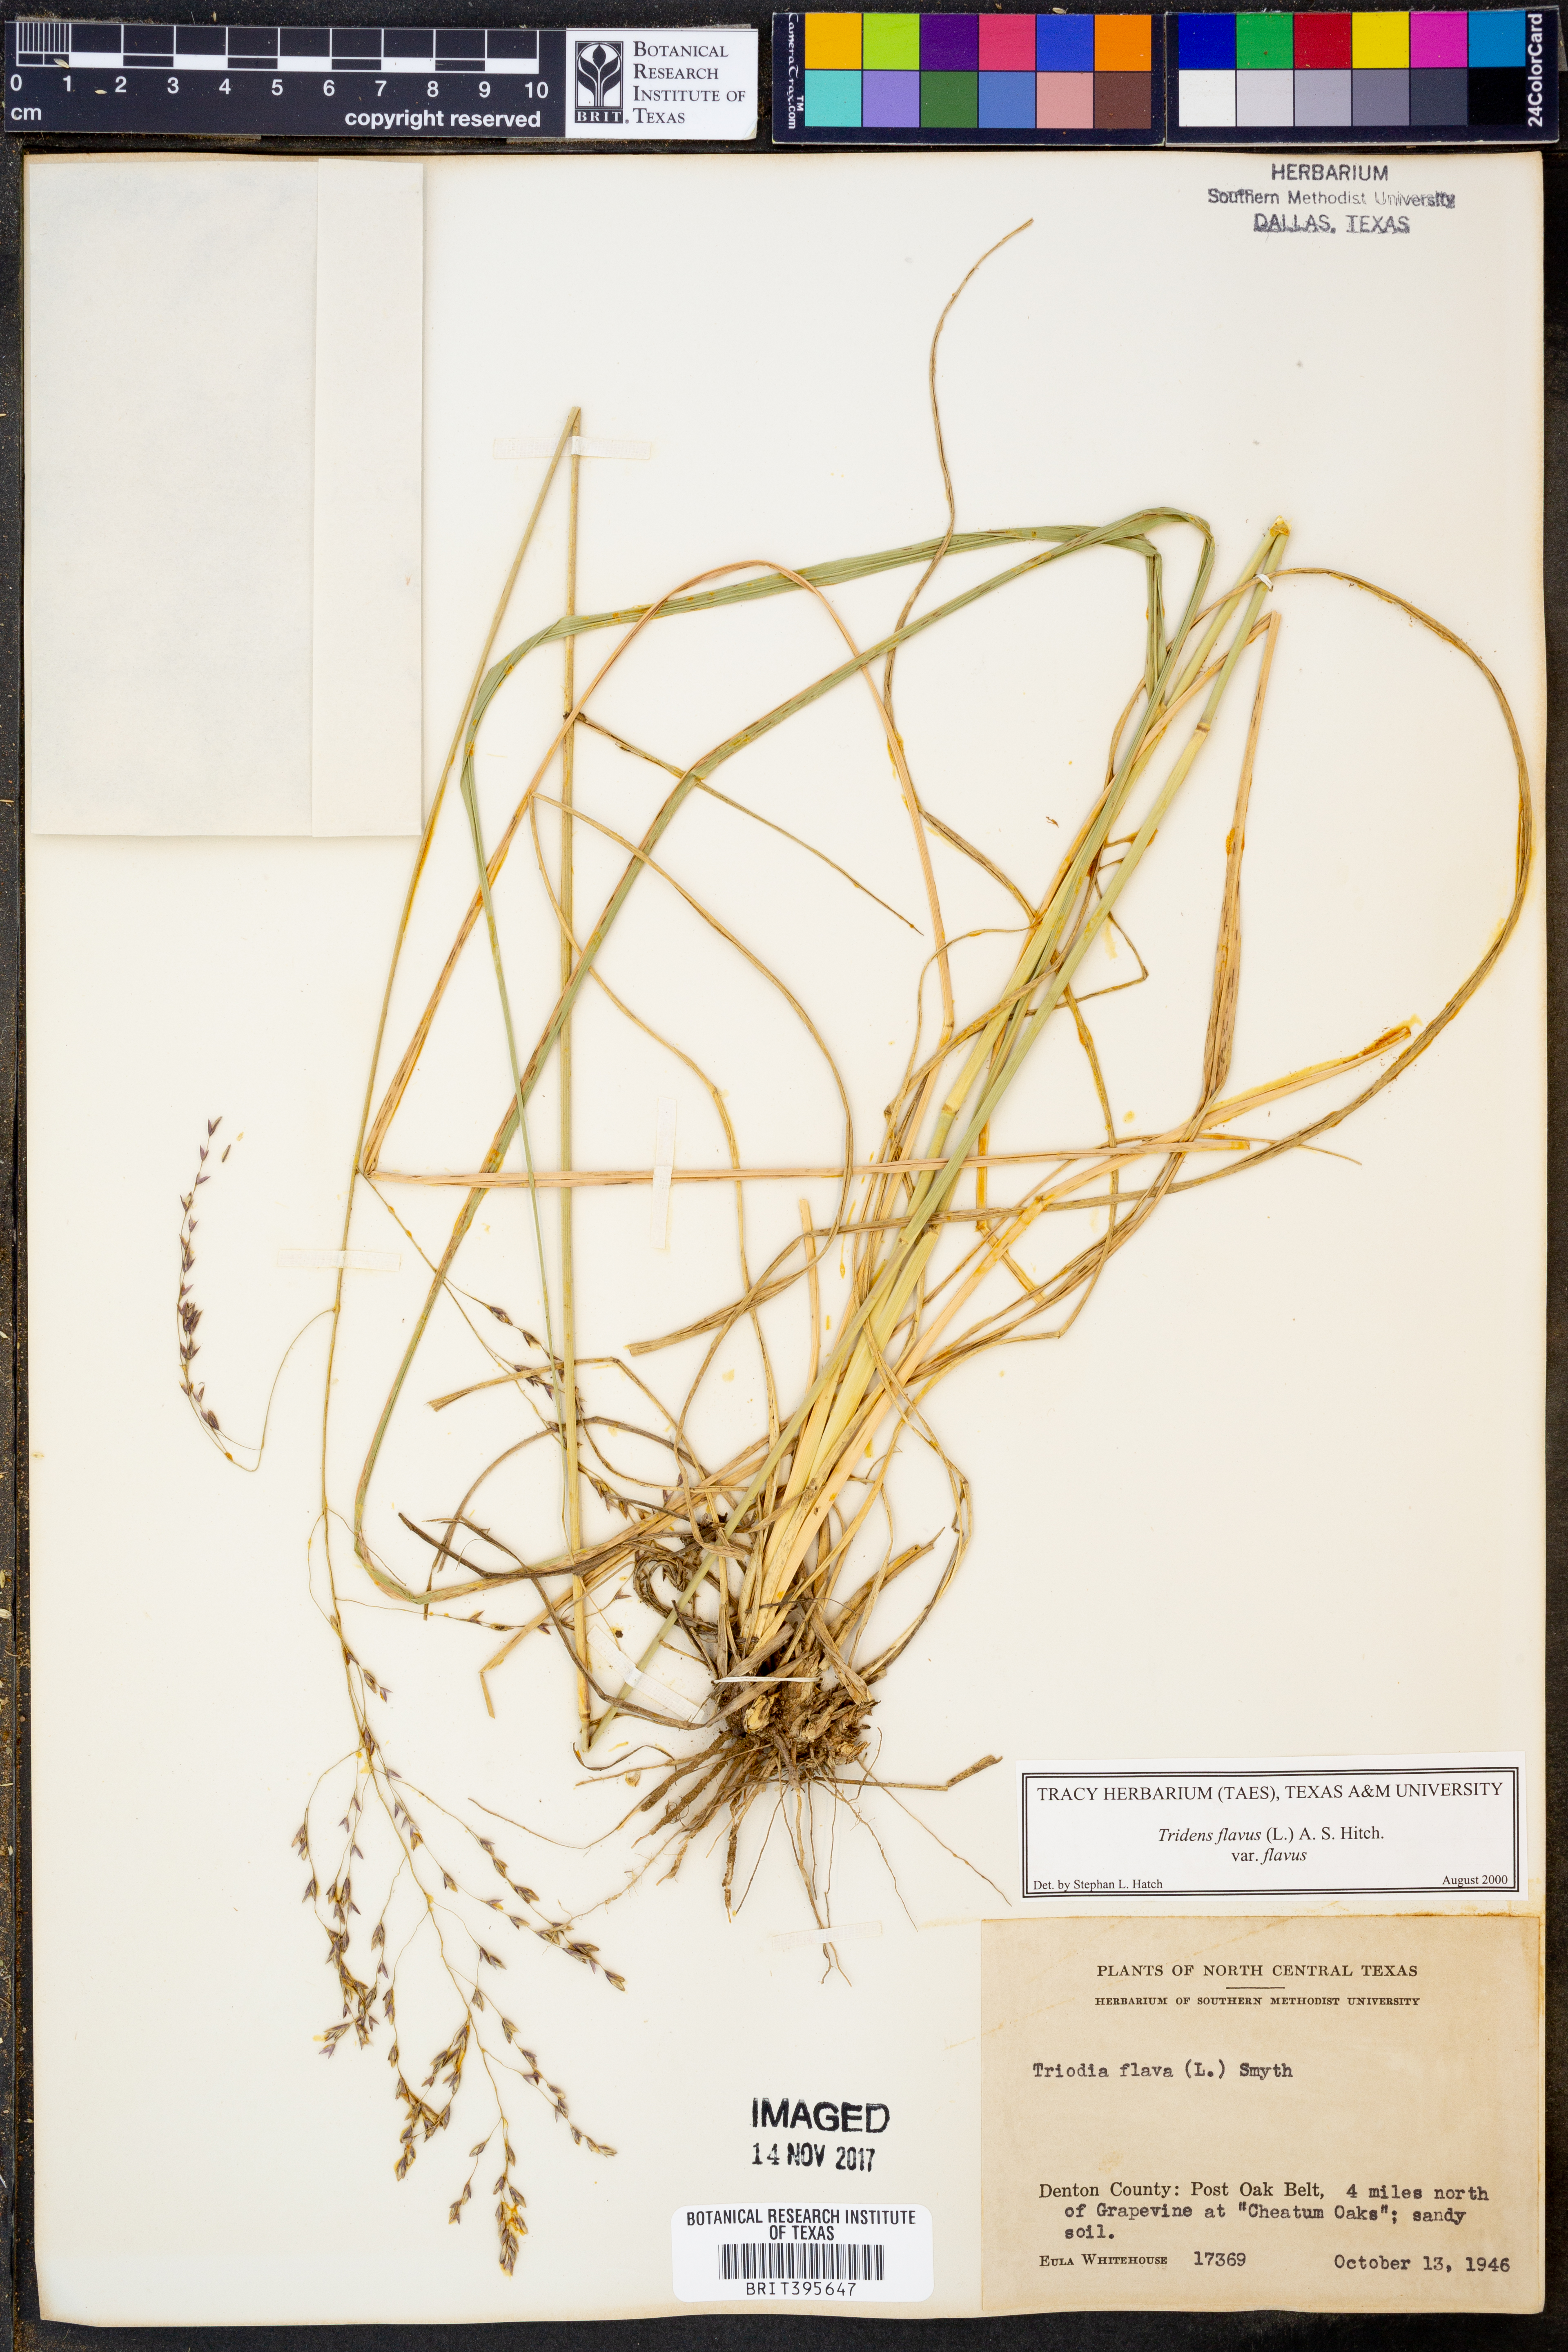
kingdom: Plantae
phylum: Tracheophyta
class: Liliopsida
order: Poales
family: Poaceae
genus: Tridens
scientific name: Tridens flavus
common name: Purpletop
